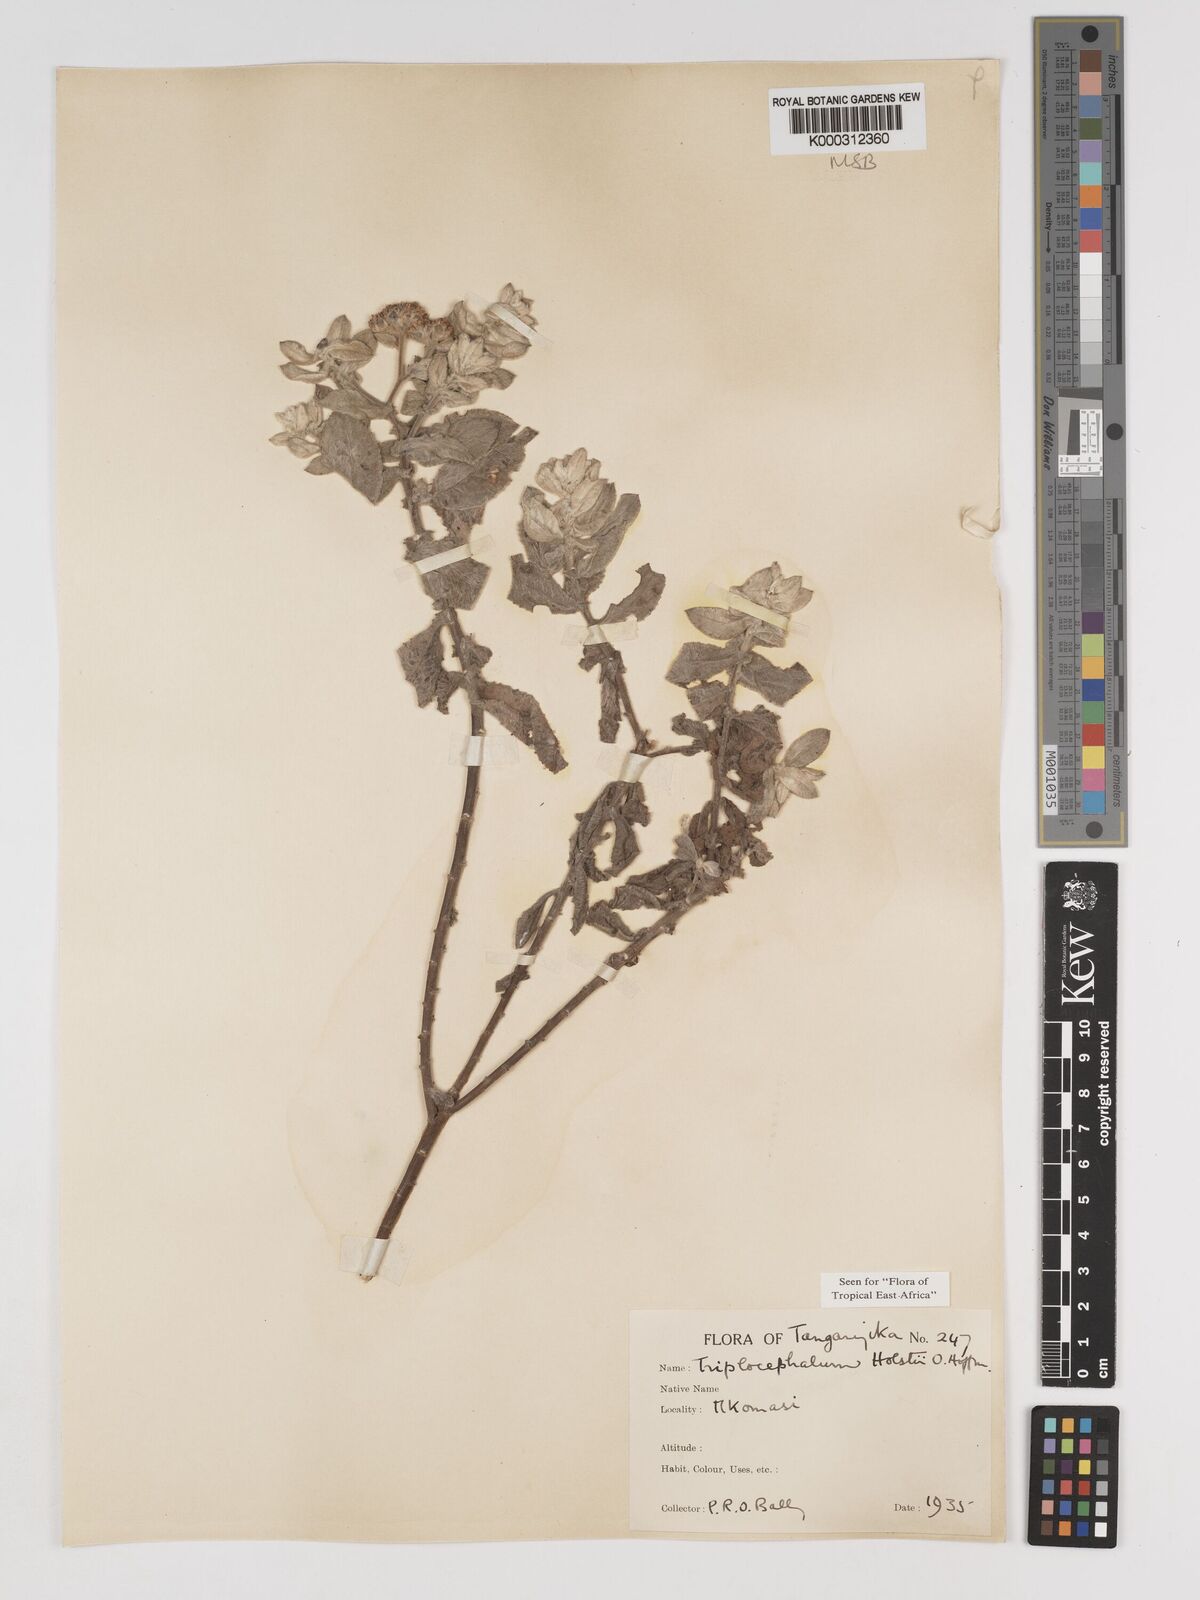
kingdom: Plantae
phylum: Tracheophyta
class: Magnoliopsida
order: Asterales
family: Asteraceae
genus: Triplocephalum
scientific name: Triplocephalum holstii
